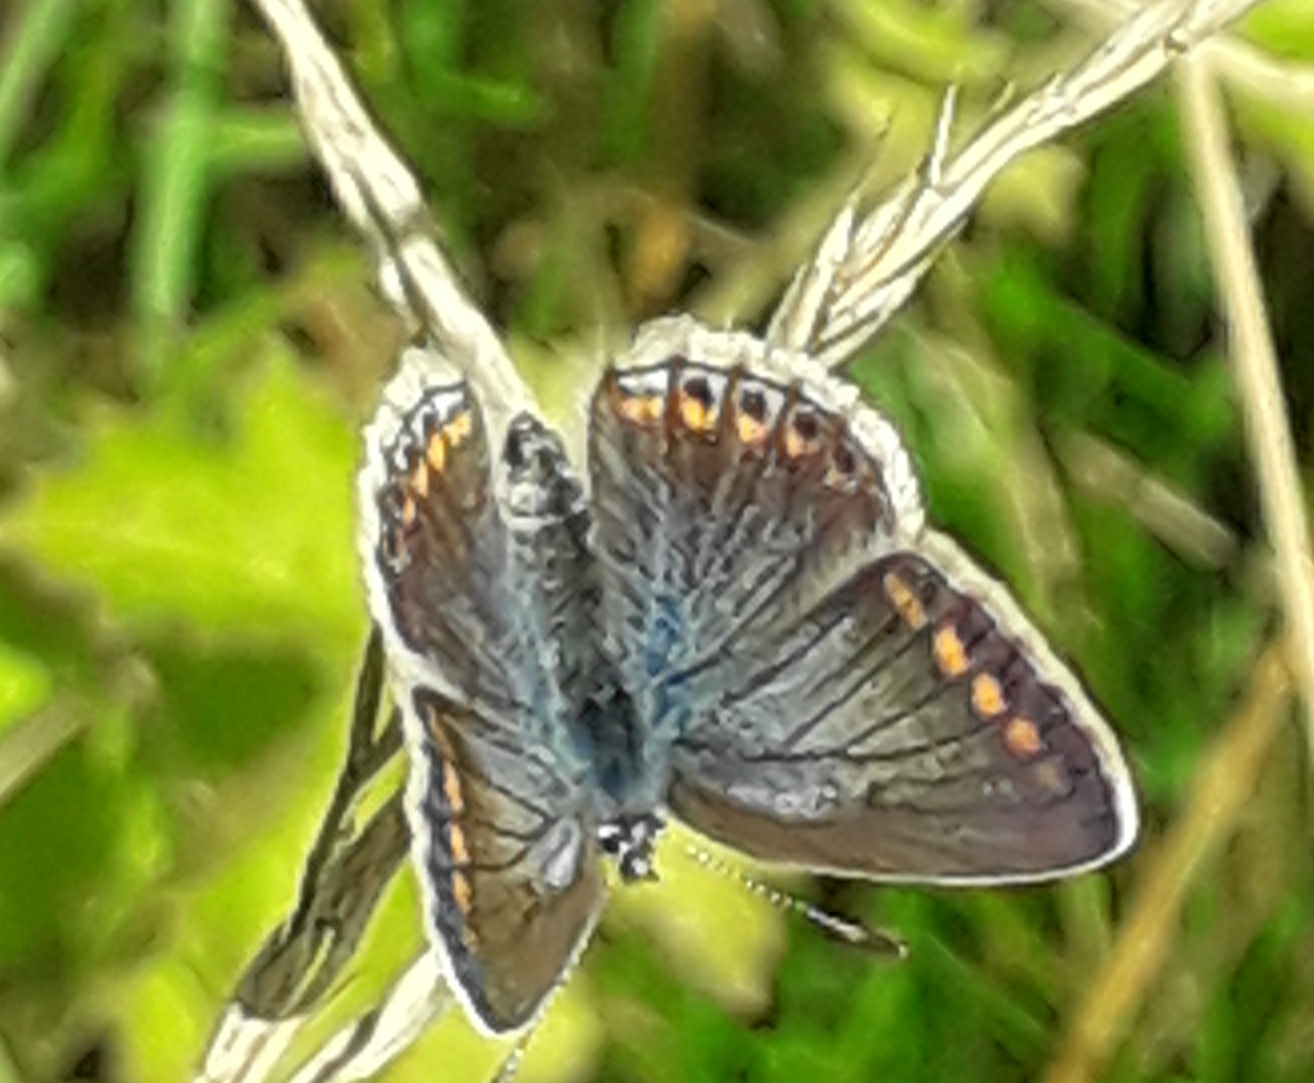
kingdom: Animalia
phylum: Arthropoda
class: Insecta
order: Lepidoptera
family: Lycaenidae
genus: Polyommatus
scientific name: Polyommatus icarus
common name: Almindelig blåfugl
